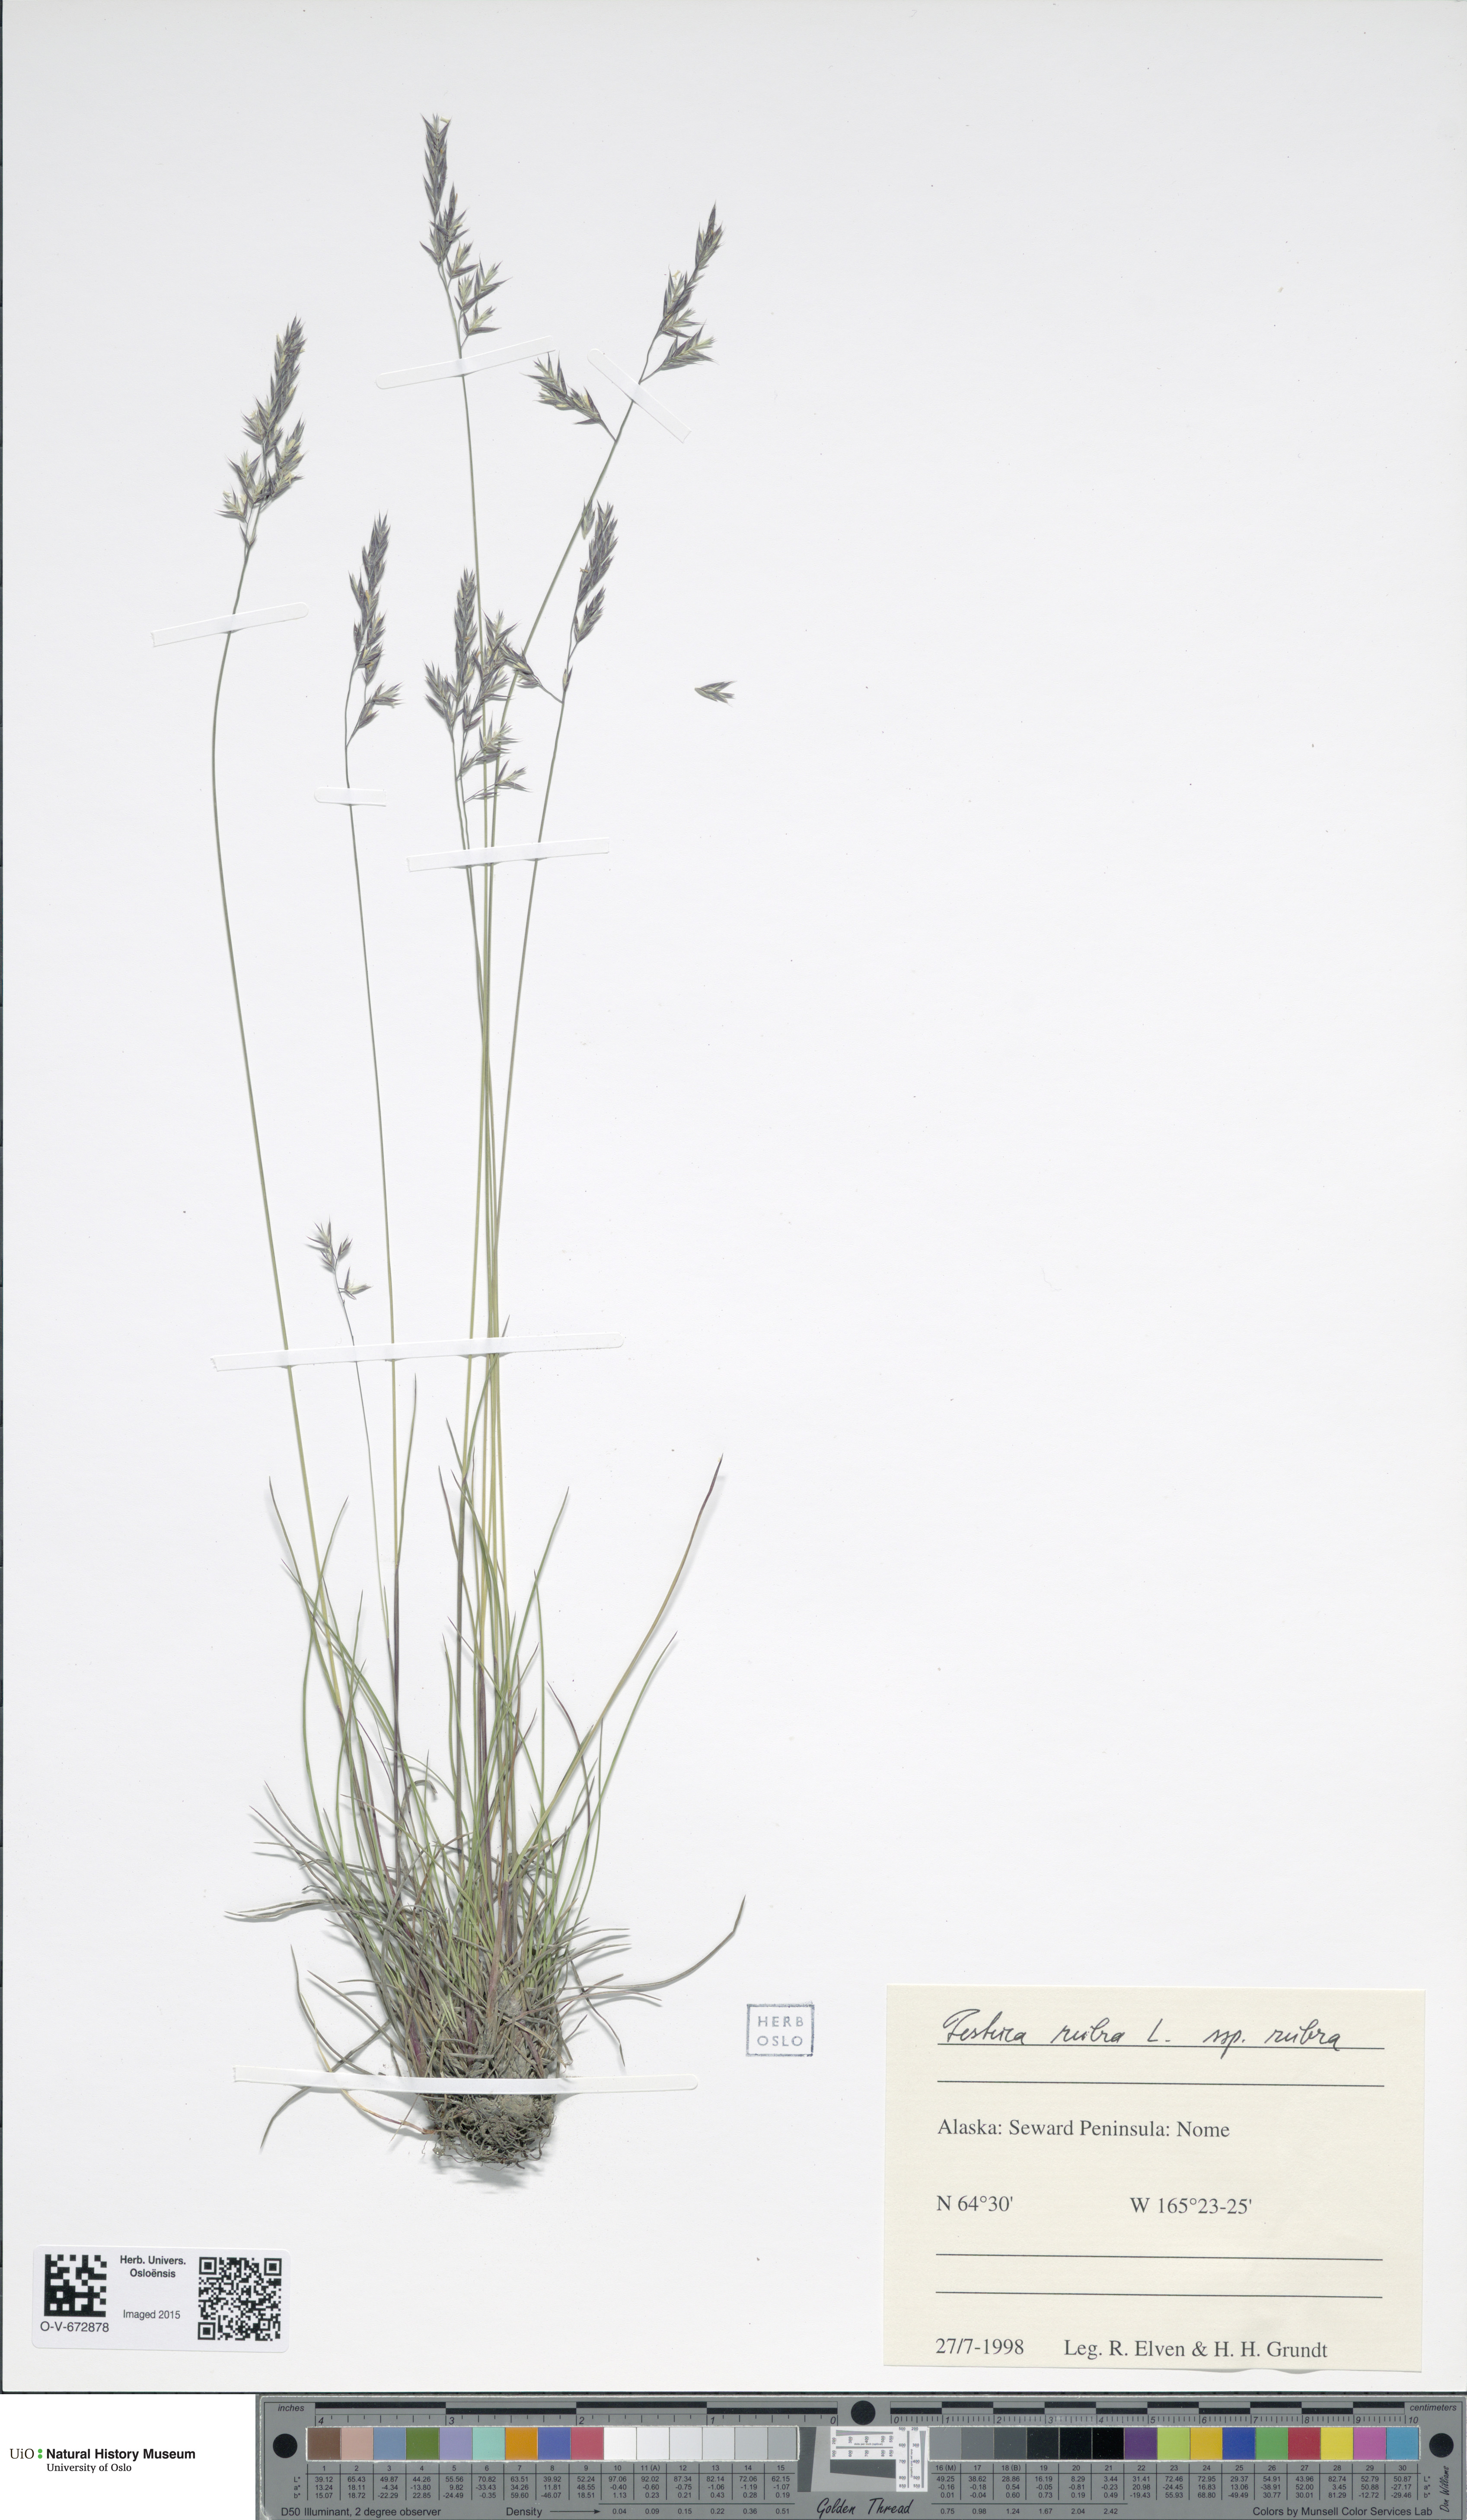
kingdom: Plantae
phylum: Tracheophyta
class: Liliopsida
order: Poales
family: Poaceae
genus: Festuca
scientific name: Festuca rubra
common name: Red fescue
